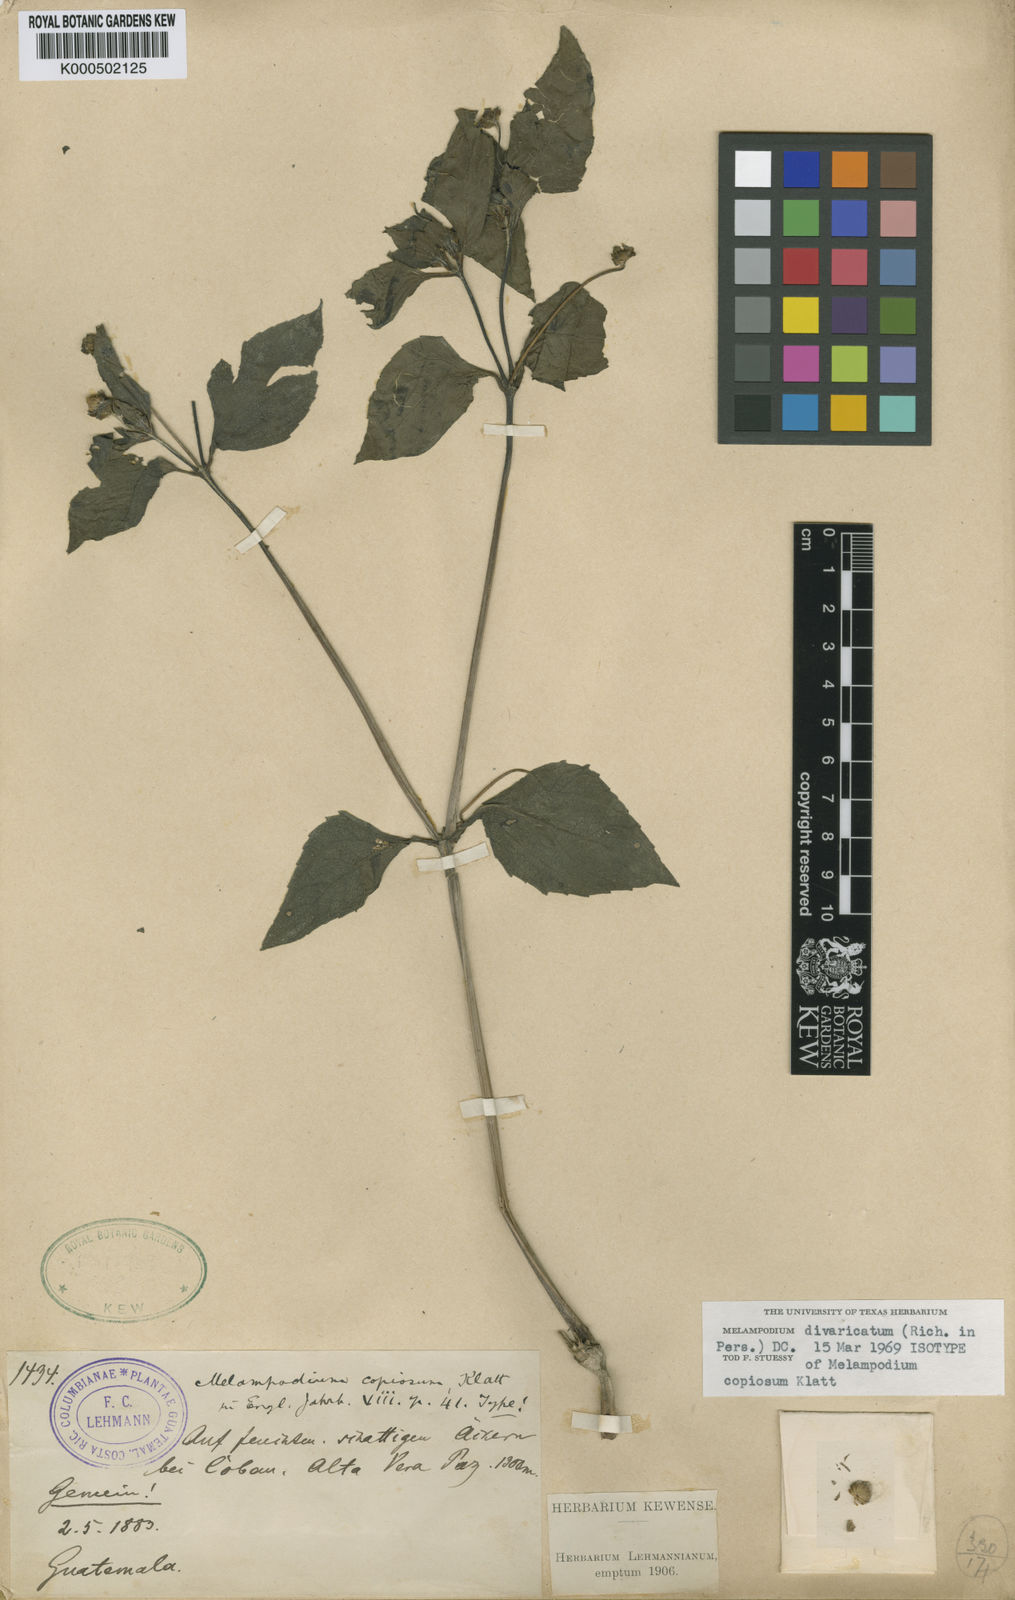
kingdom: Plantae
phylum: Tracheophyta
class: Magnoliopsida
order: Asterales
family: Asteraceae
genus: Melampodium
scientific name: Melampodium divaricatum
